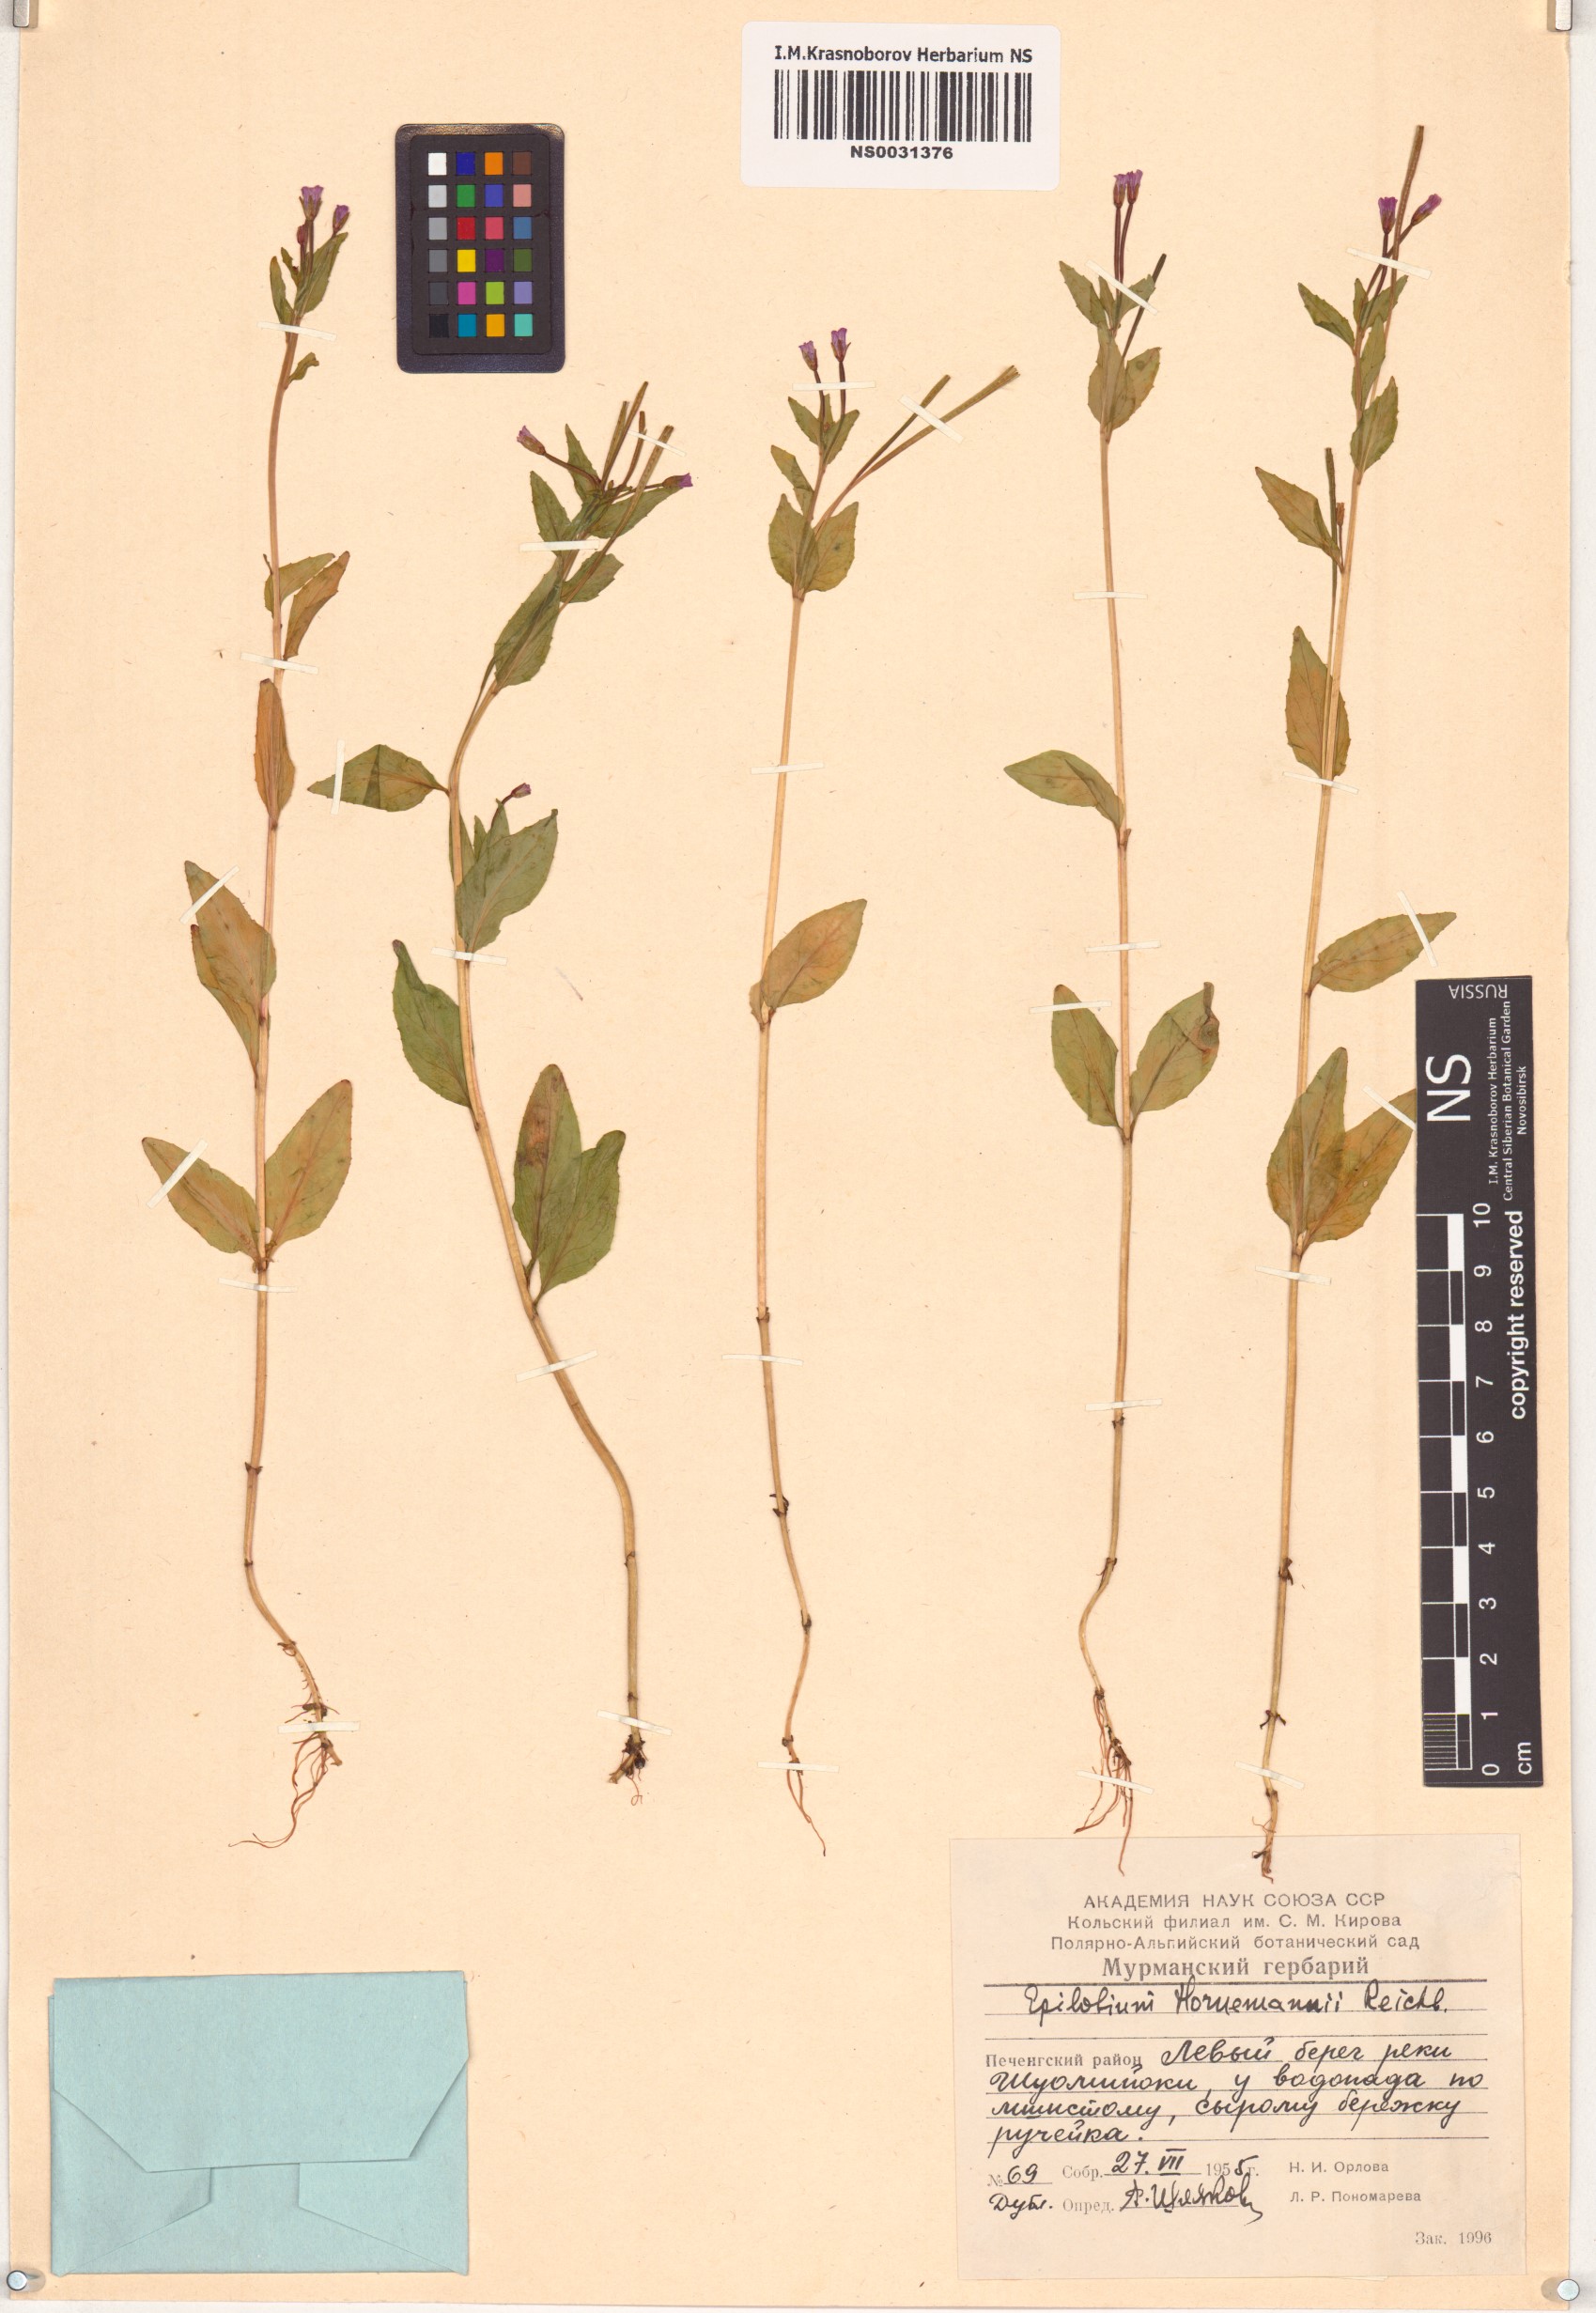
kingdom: Plantae
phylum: Tracheophyta
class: Magnoliopsida
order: Myrtales
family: Onagraceae
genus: Epilobium
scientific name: Epilobium hornemannii
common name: Hornemann's willowherb
